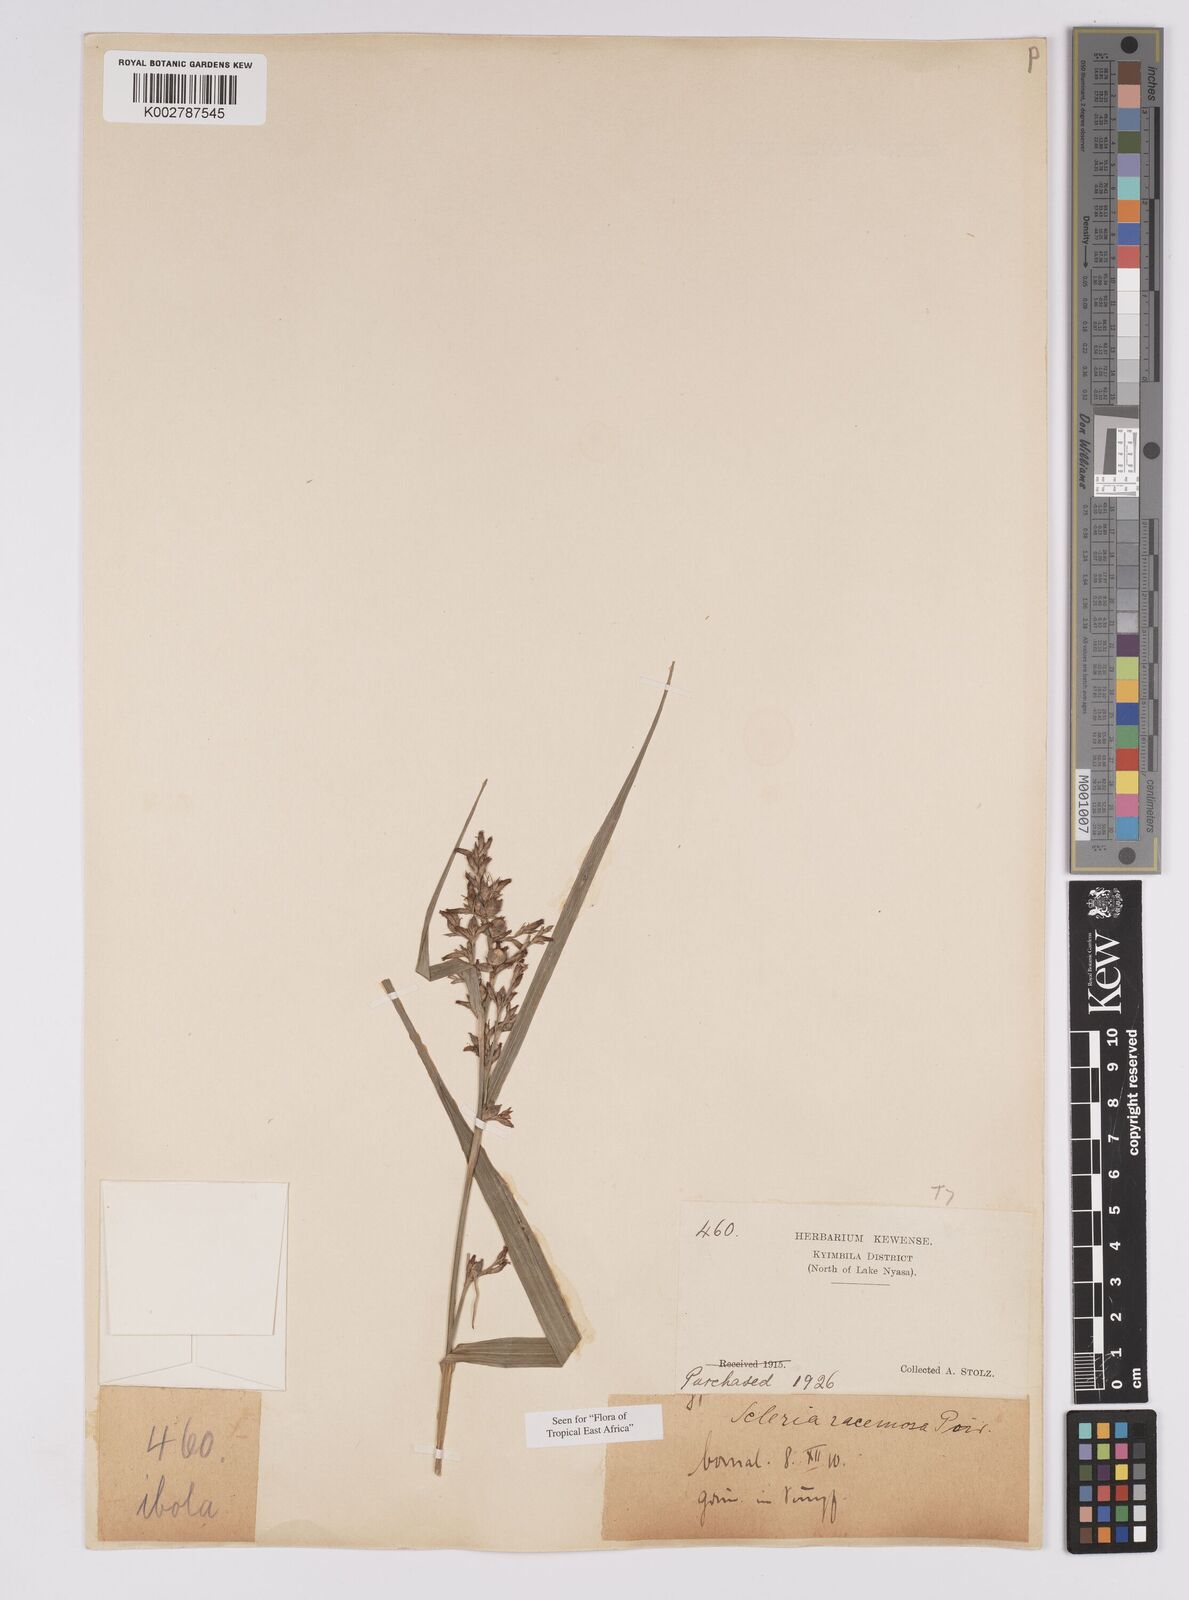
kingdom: Plantae
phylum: Tracheophyta
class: Liliopsida
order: Poales
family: Cyperaceae
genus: Scleria
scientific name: Scleria racemosa
